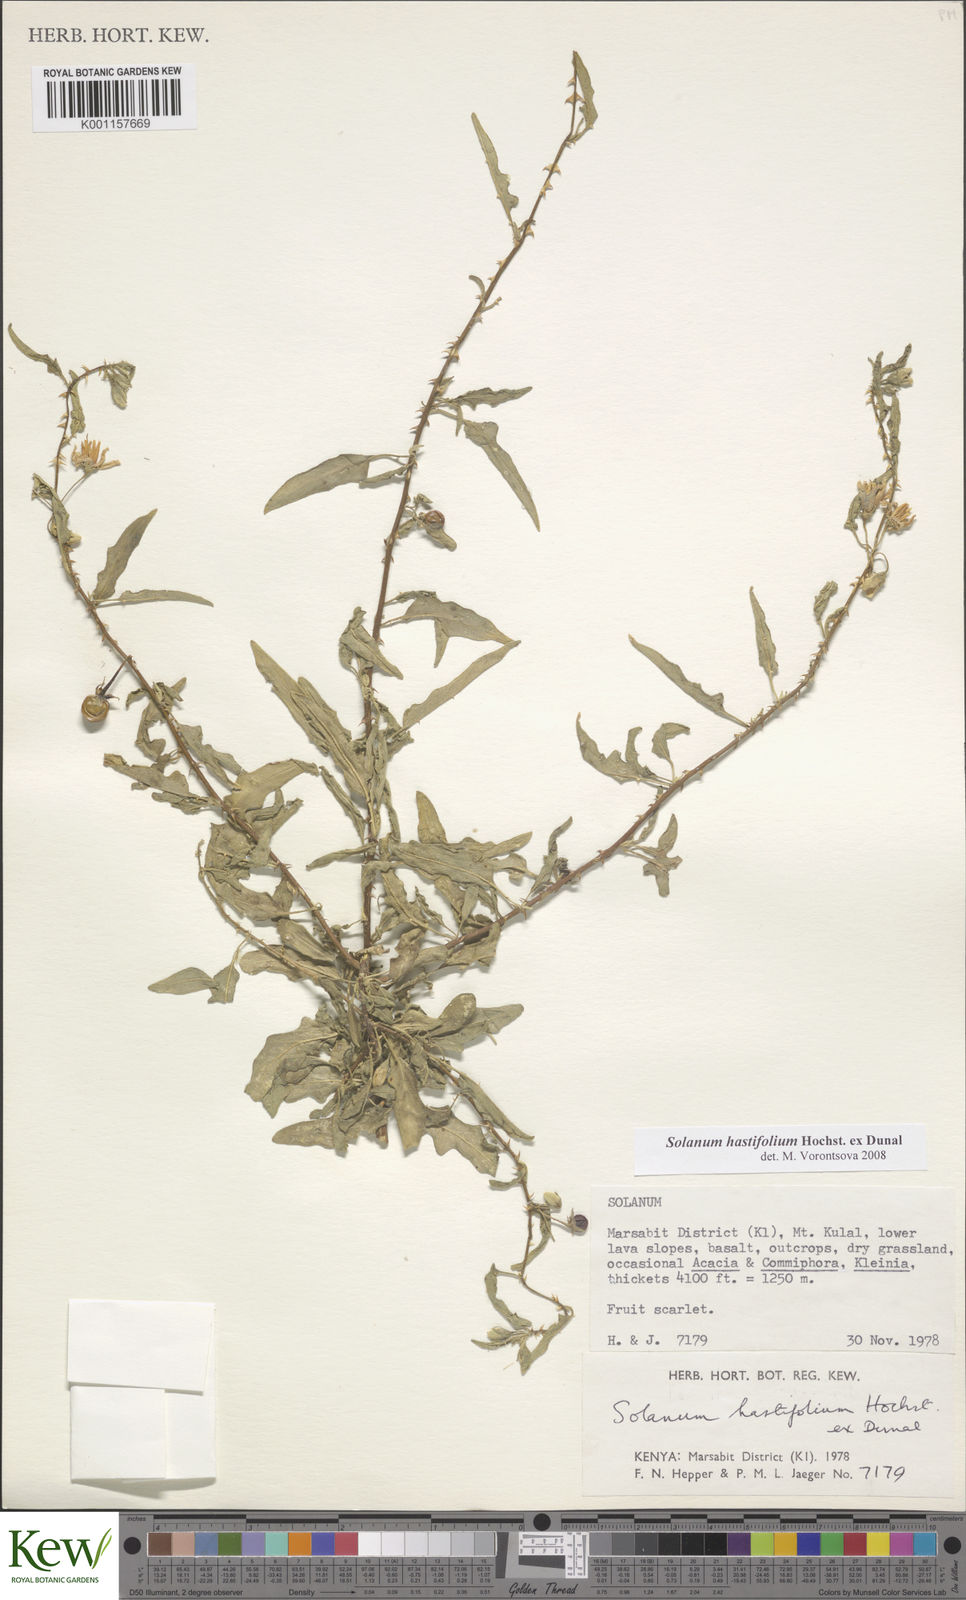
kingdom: Plantae
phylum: Tracheophyta
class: Magnoliopsida
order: Solanales
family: Solanaceae
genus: Solanum
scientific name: Solanum hastifolium
